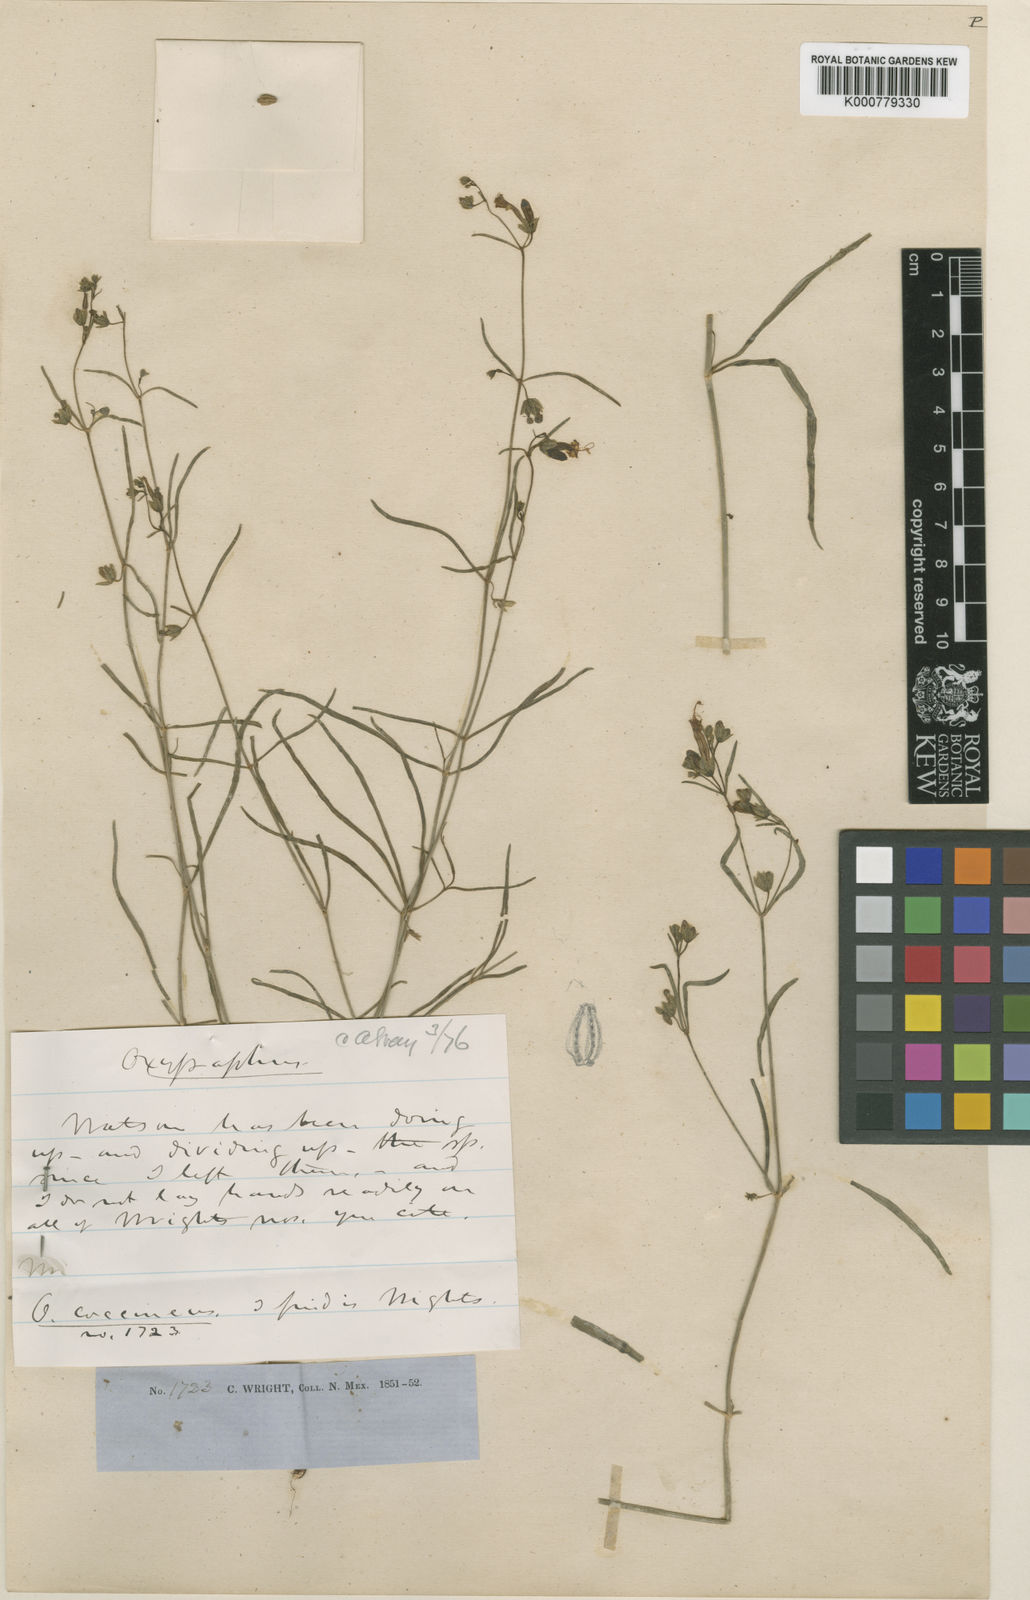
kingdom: Plantae
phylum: Tracheophyta
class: Magnoliopsida
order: Caryophyllales
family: Nyctaginaceae
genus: Mirabilis
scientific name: Mirabilis coccinea
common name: Scarlet four-o'clock
